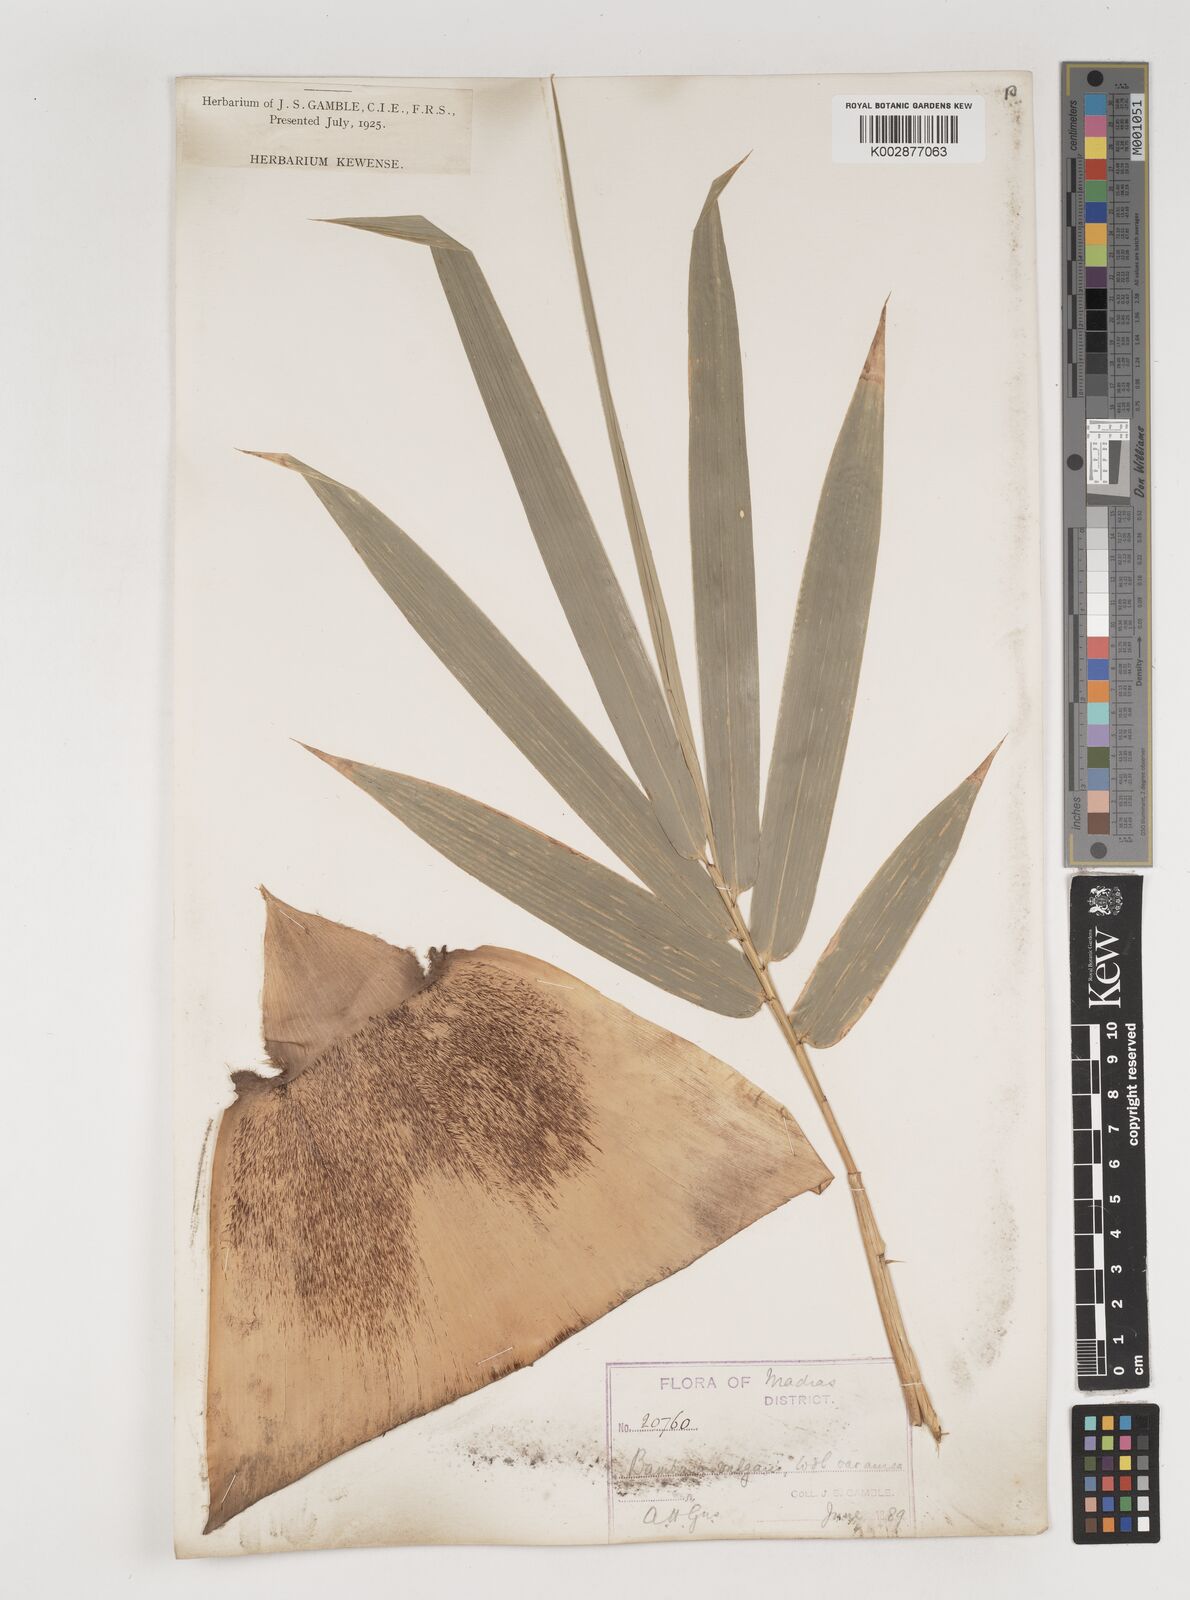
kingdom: Plantae
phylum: Tracheophyta
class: Liliopsida
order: Poales
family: Poaceae
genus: Bambusa
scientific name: Bambusa vulgaris
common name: Common bamboo
